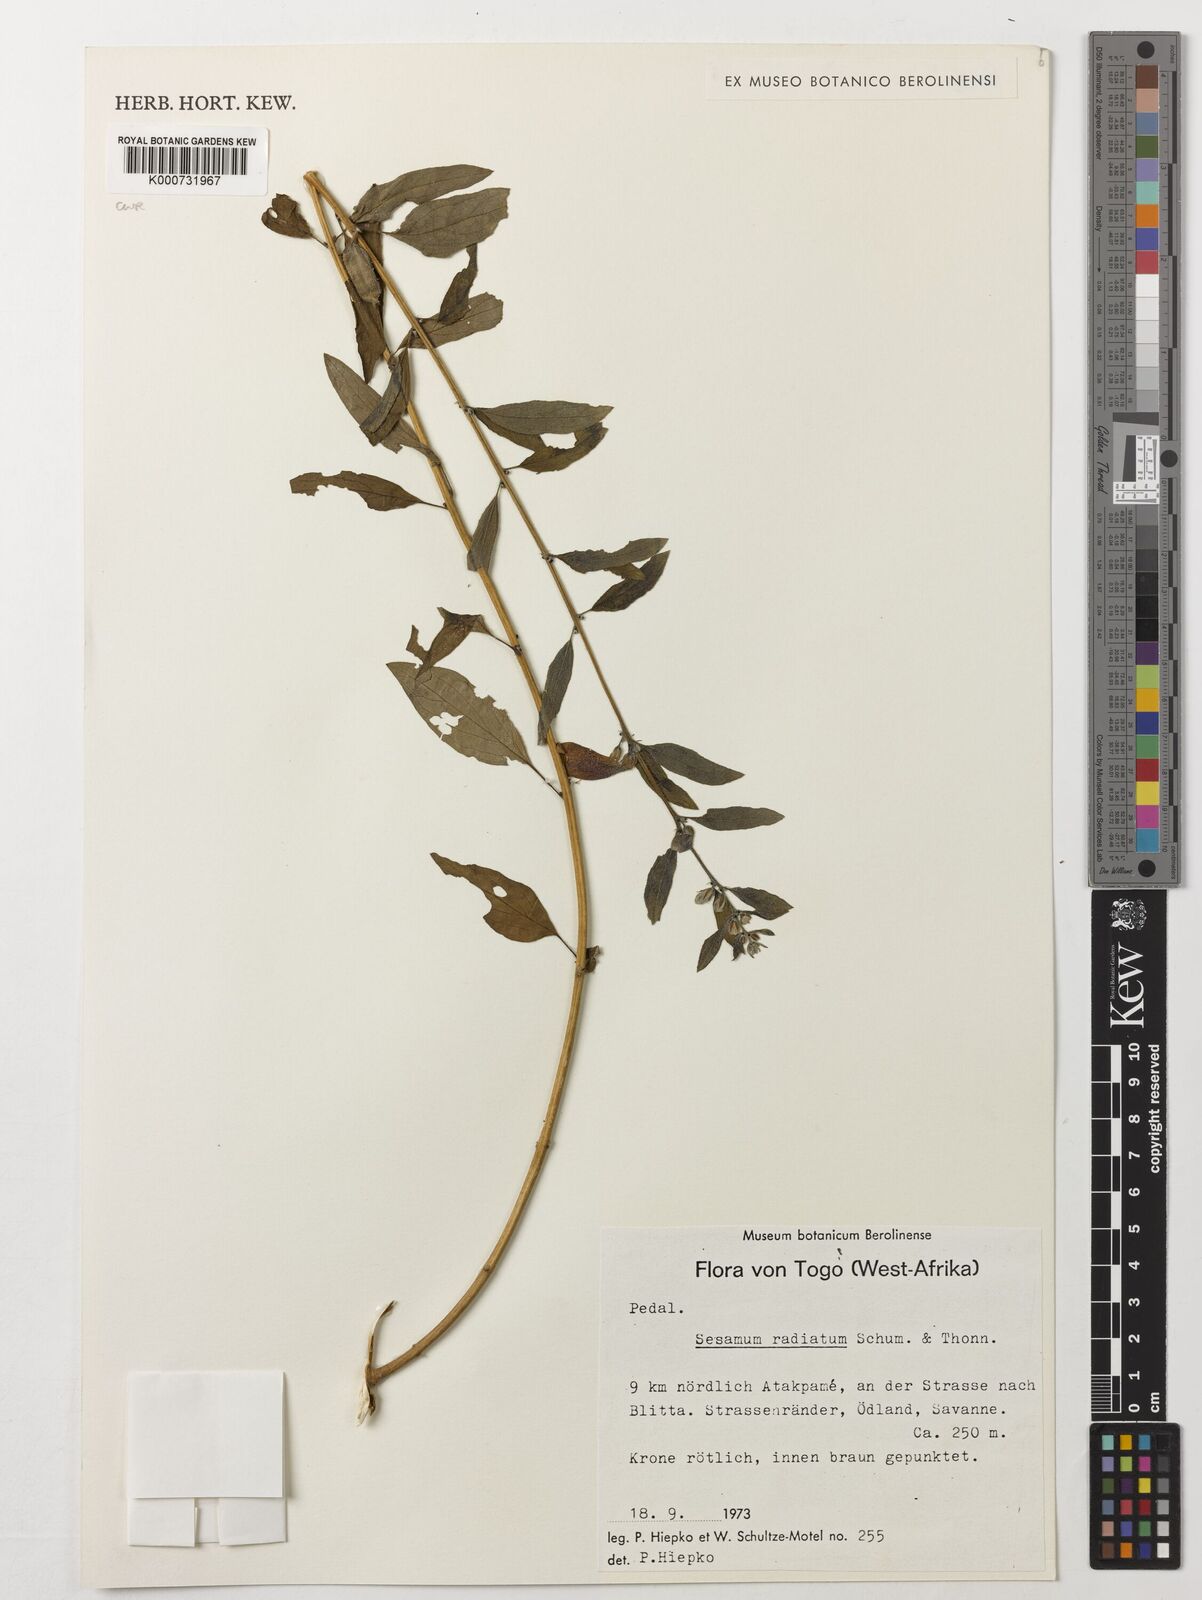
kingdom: Plantae
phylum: Tracheophyta
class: Magnoliopsida
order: Lamiales
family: Pedaliaceae
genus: Sesamum
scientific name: Sesamum
